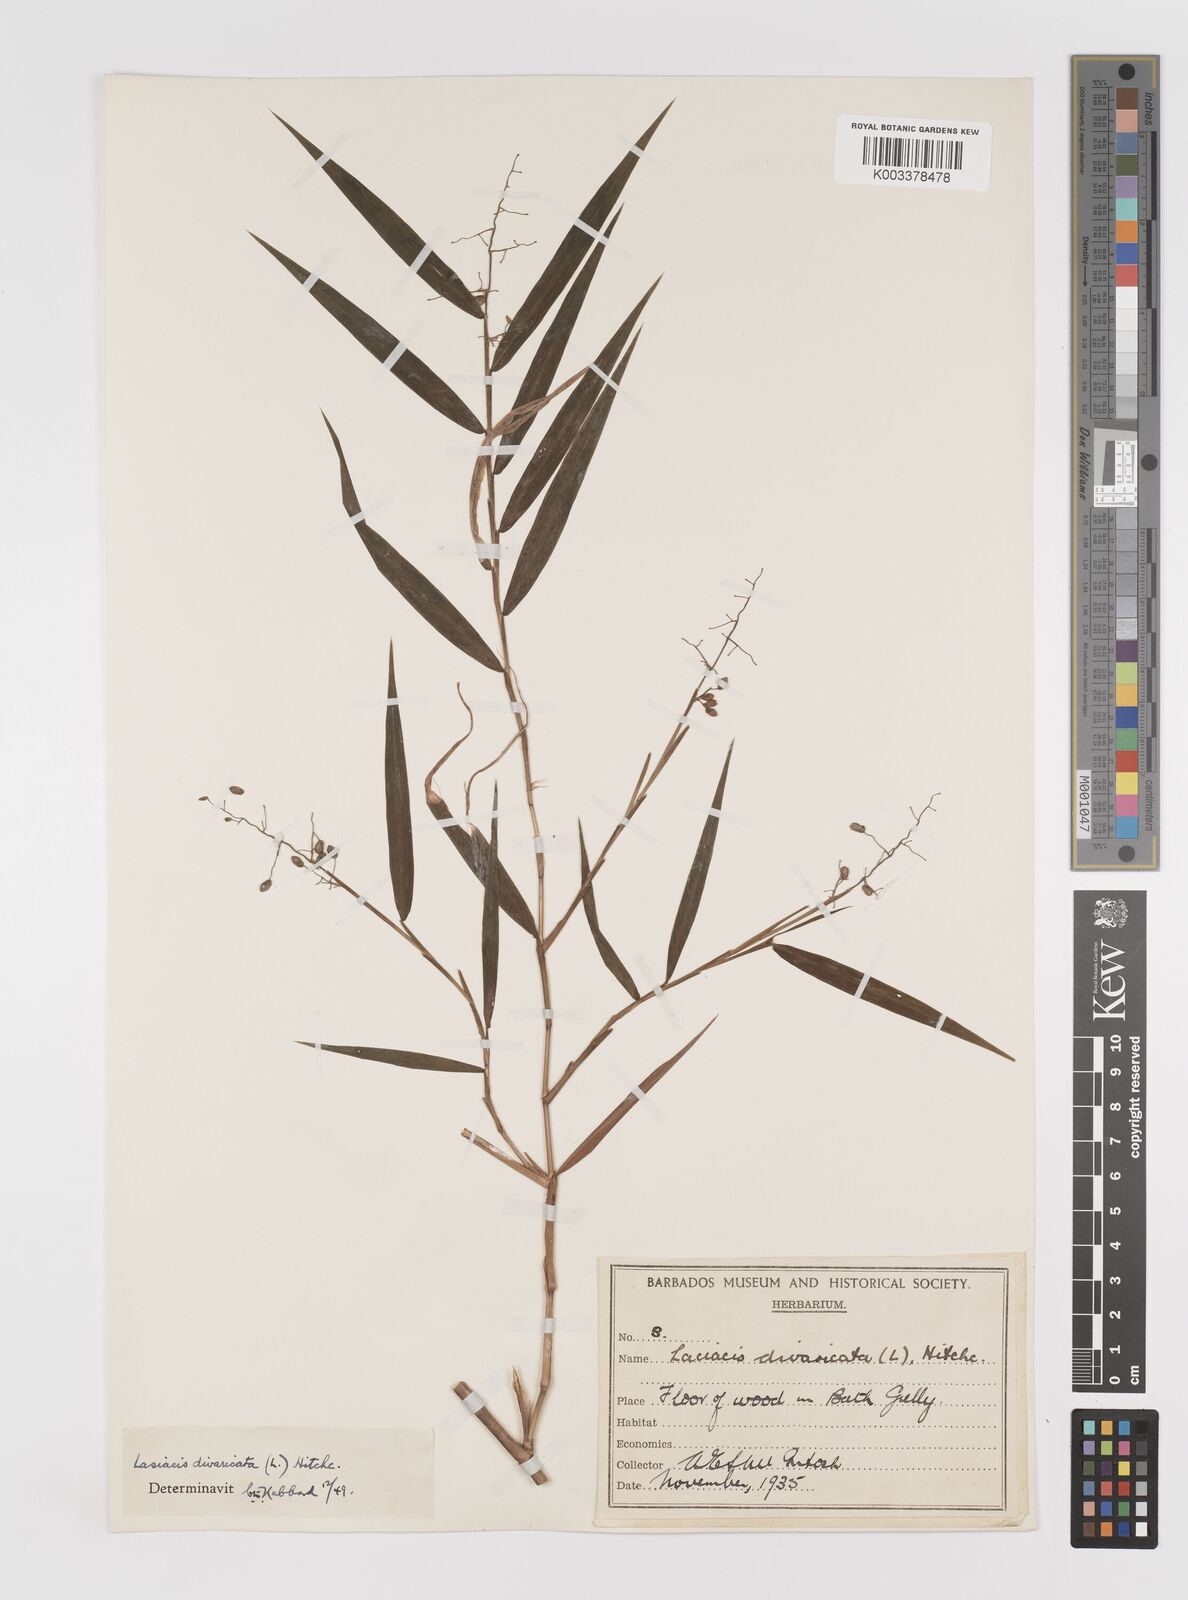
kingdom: Plantae
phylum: Tracheophyta
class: Liliopsida
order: Poales
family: Poaceae
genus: Lasiacis
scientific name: Lasiacis divaricata
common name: Smallcane
